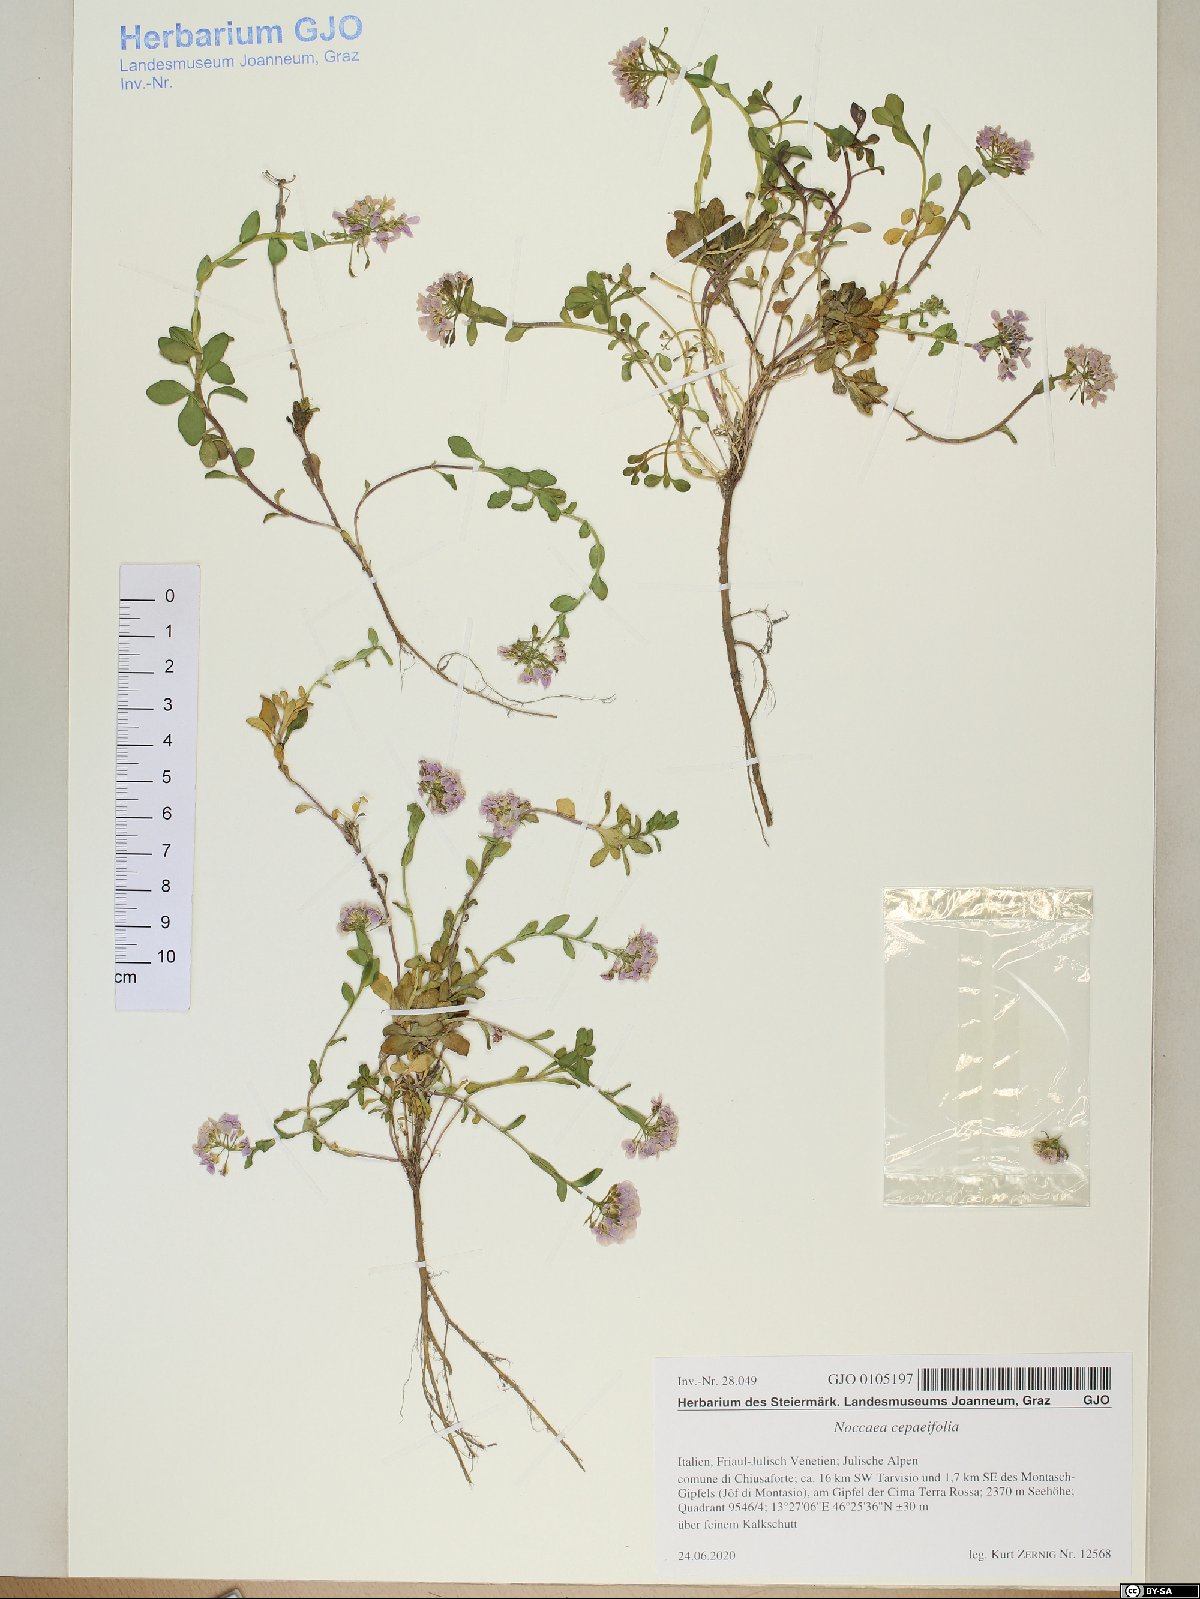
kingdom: Plantae
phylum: Tracheophyta
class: Magnoliopsida
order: Brassicales
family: Brassicaceae
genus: Noccaea
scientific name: Noccaea cepaeifolia
